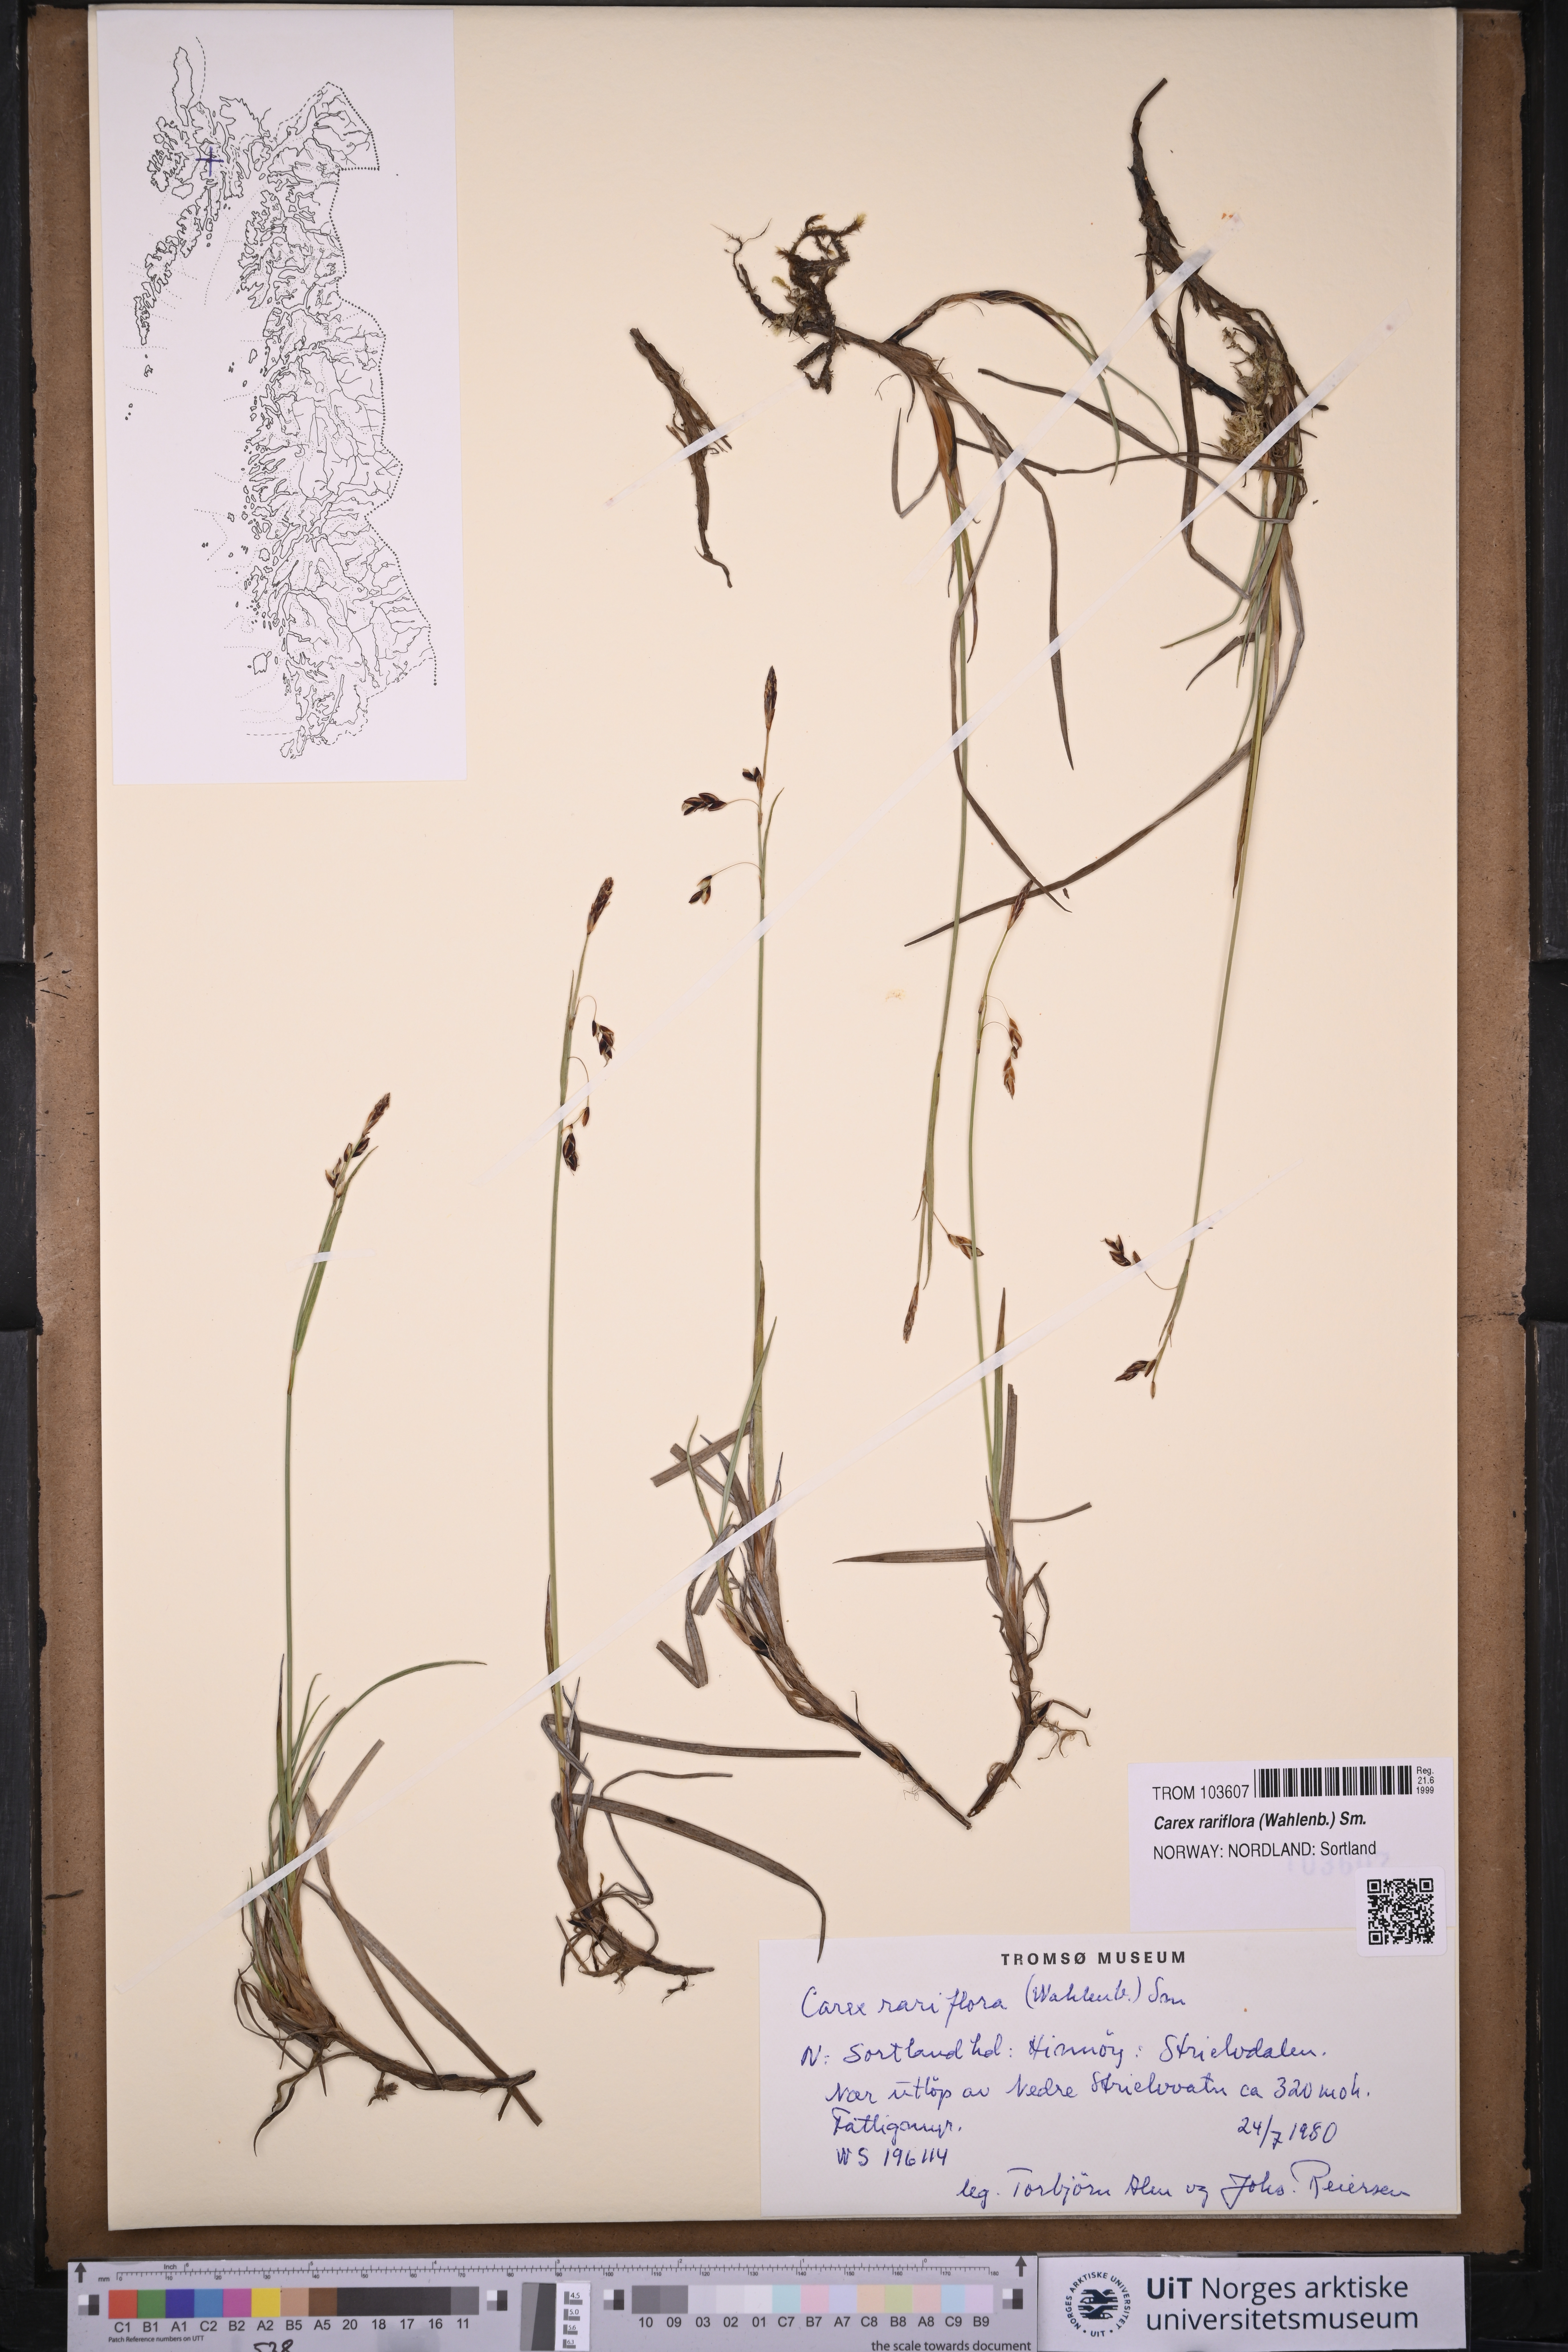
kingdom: Plantae
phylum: Tracheophyta
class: Liliopsida
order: Poales
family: Cyperaceae
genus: Carex
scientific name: Carex rariflora
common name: Loose-flowered alpine sedge
